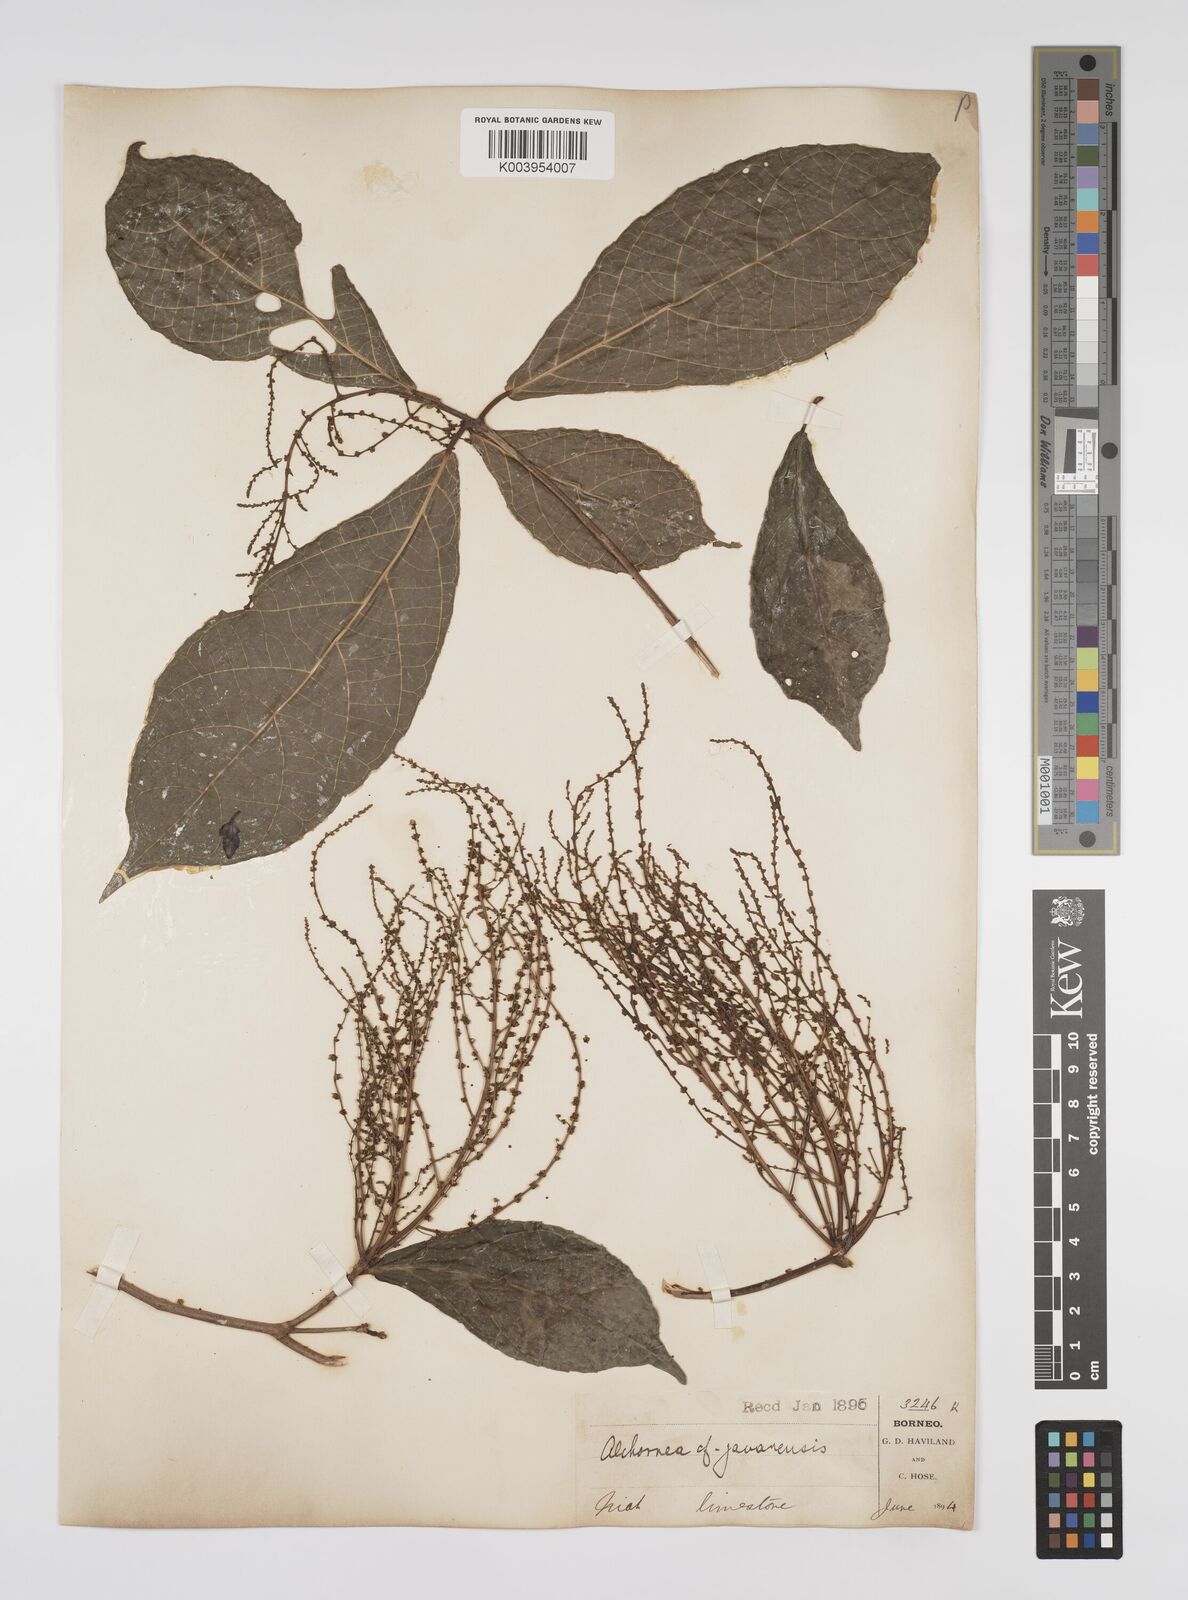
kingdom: Plantae
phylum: Tracheophyta
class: Magnoliopsida
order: Malpighiales
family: Euphorbiaceae
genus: Alchornea
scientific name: Alchornea rugosa
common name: Alchorntree
